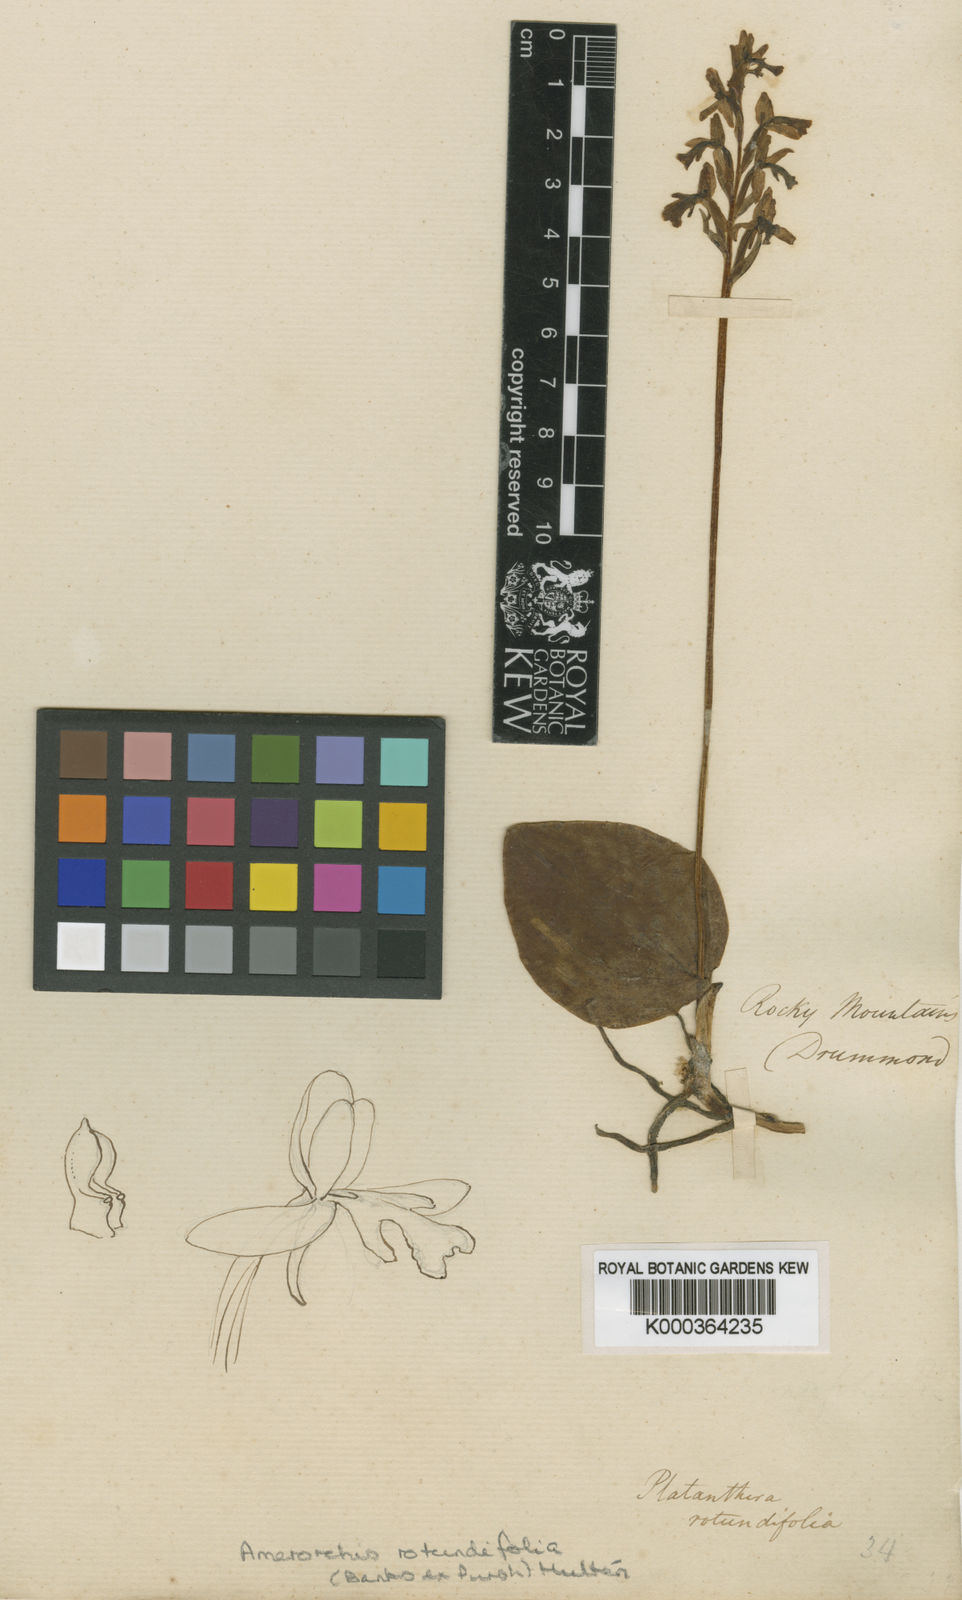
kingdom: Plantae
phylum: Tracheophyta
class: Liliopsida
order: Asparagales
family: Orchidaceae
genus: Galearis
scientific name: Galearis
